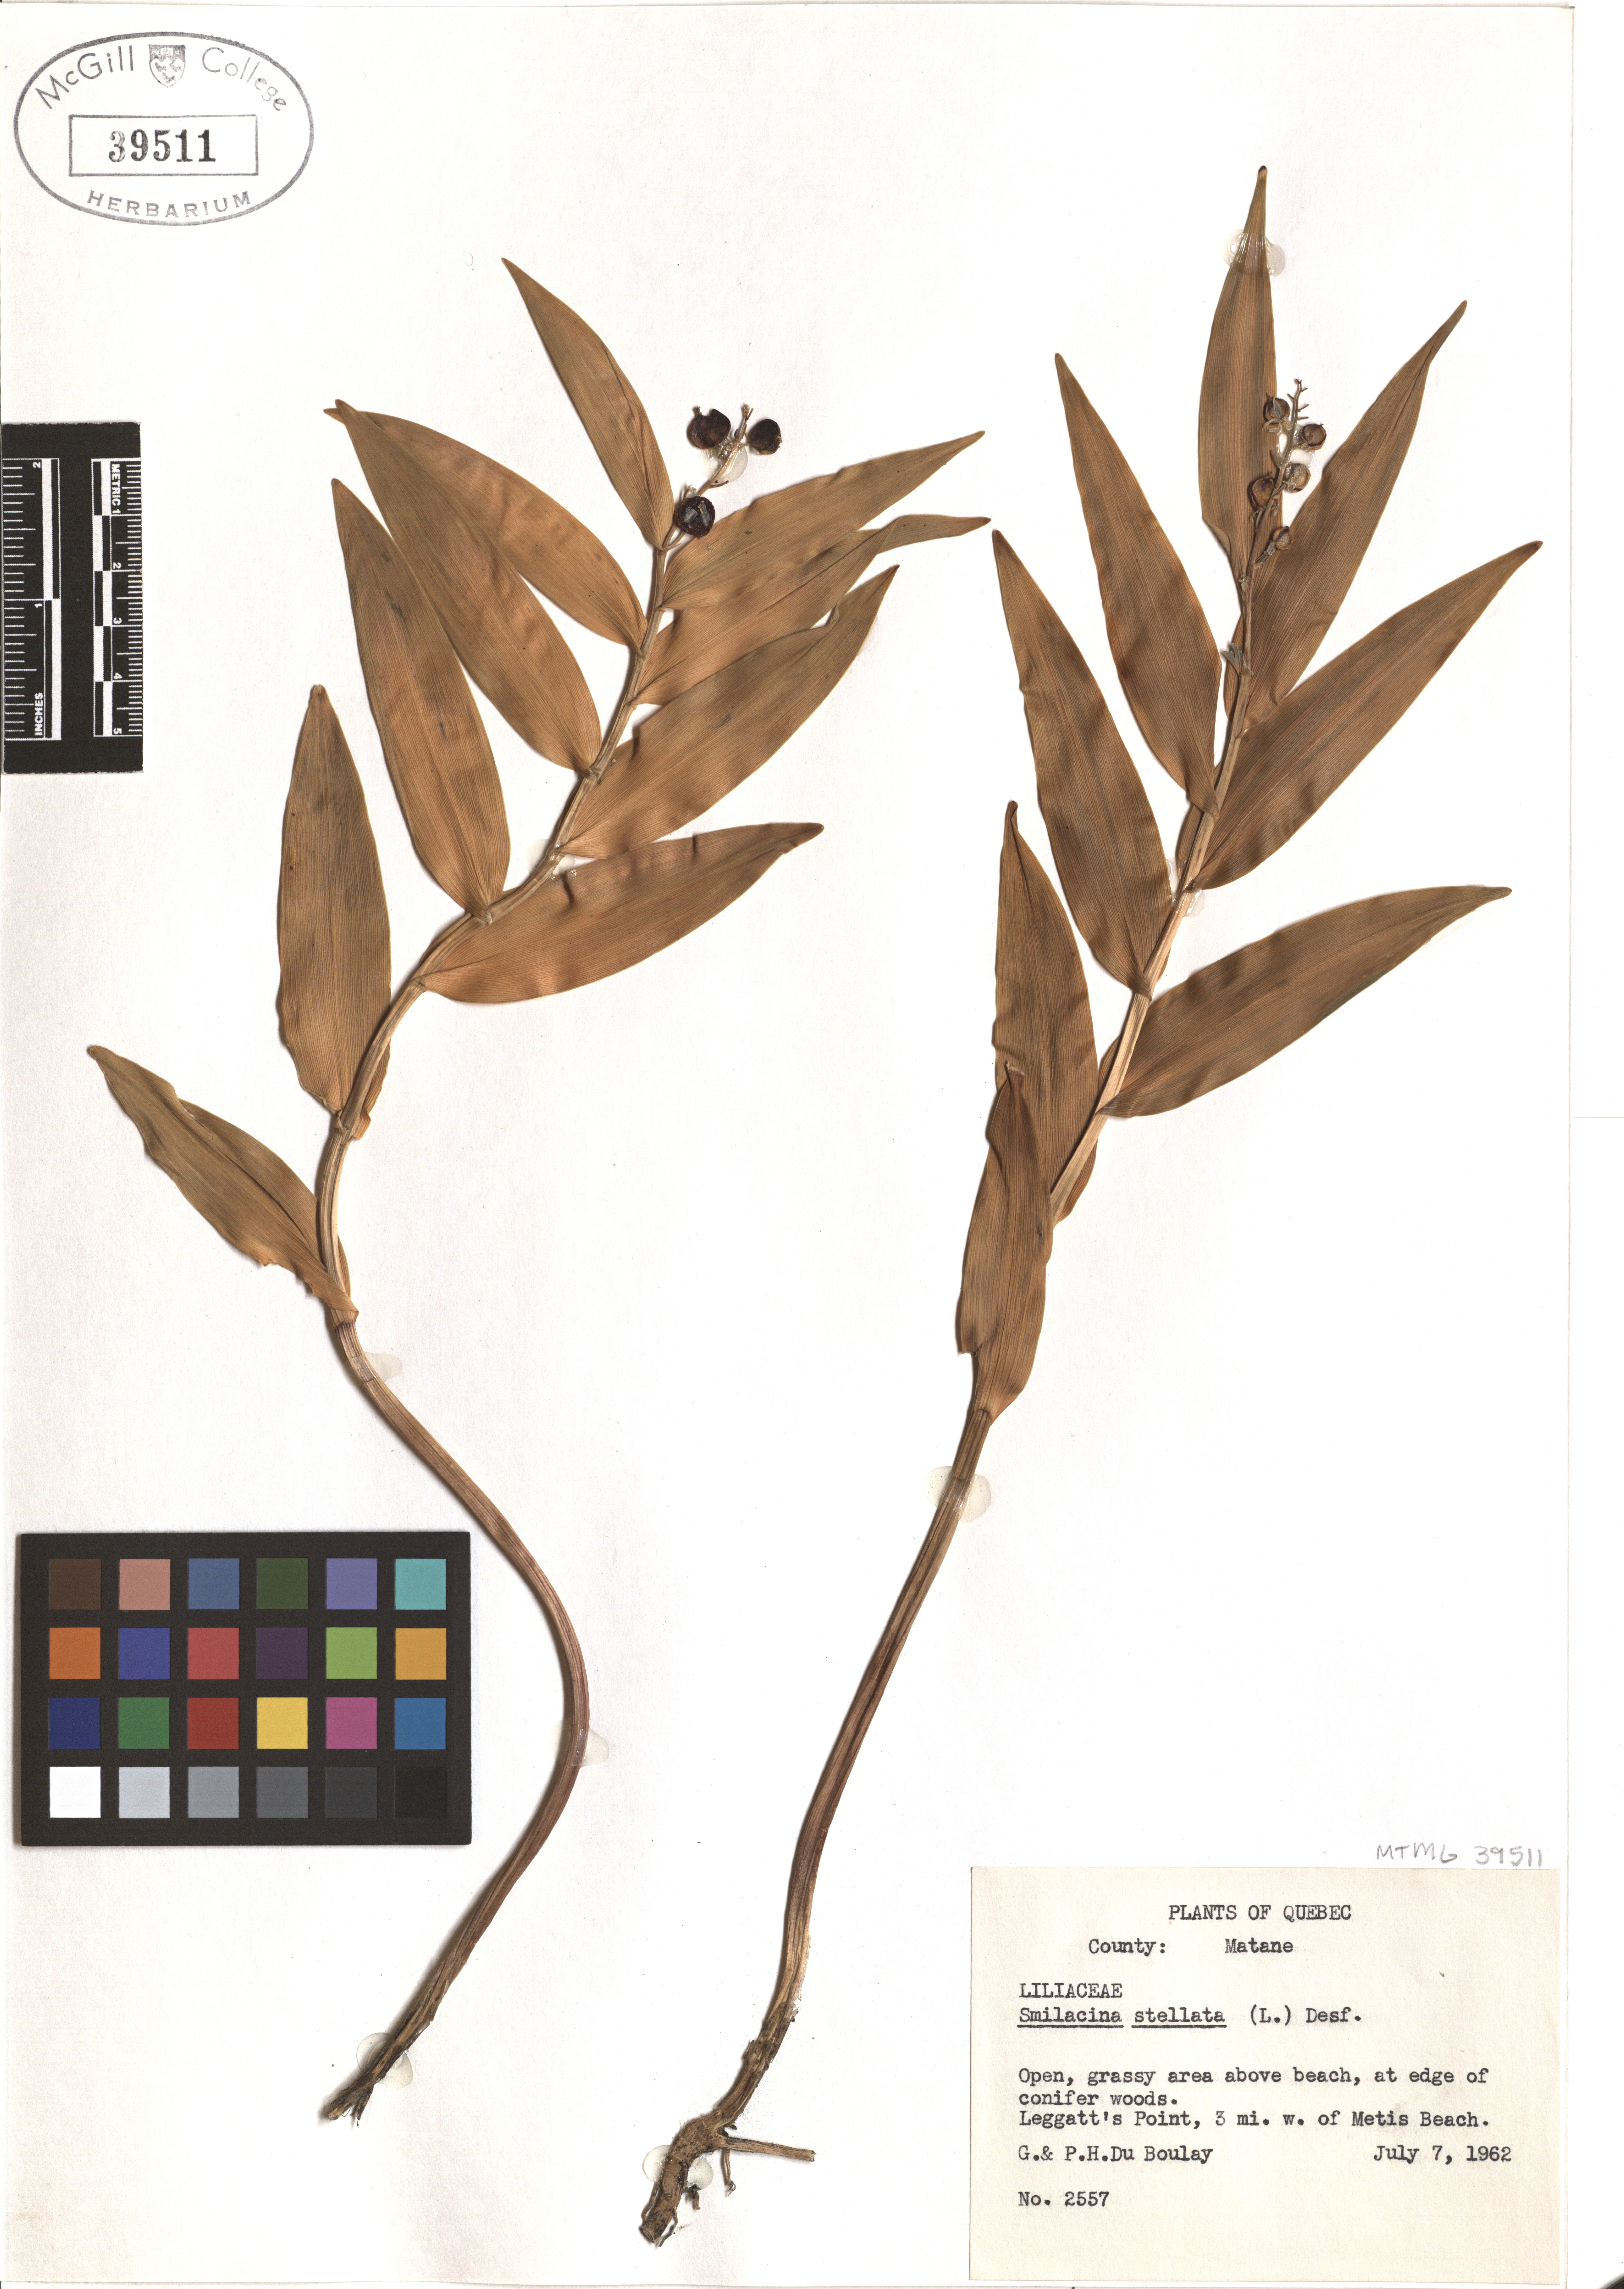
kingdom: Plantae
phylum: Tracheophyta
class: Liliopsida
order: Asparagales
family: Asparagaceae
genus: Maianthemum
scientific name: Maianthemum stellatum
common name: Little false solomon's seal
